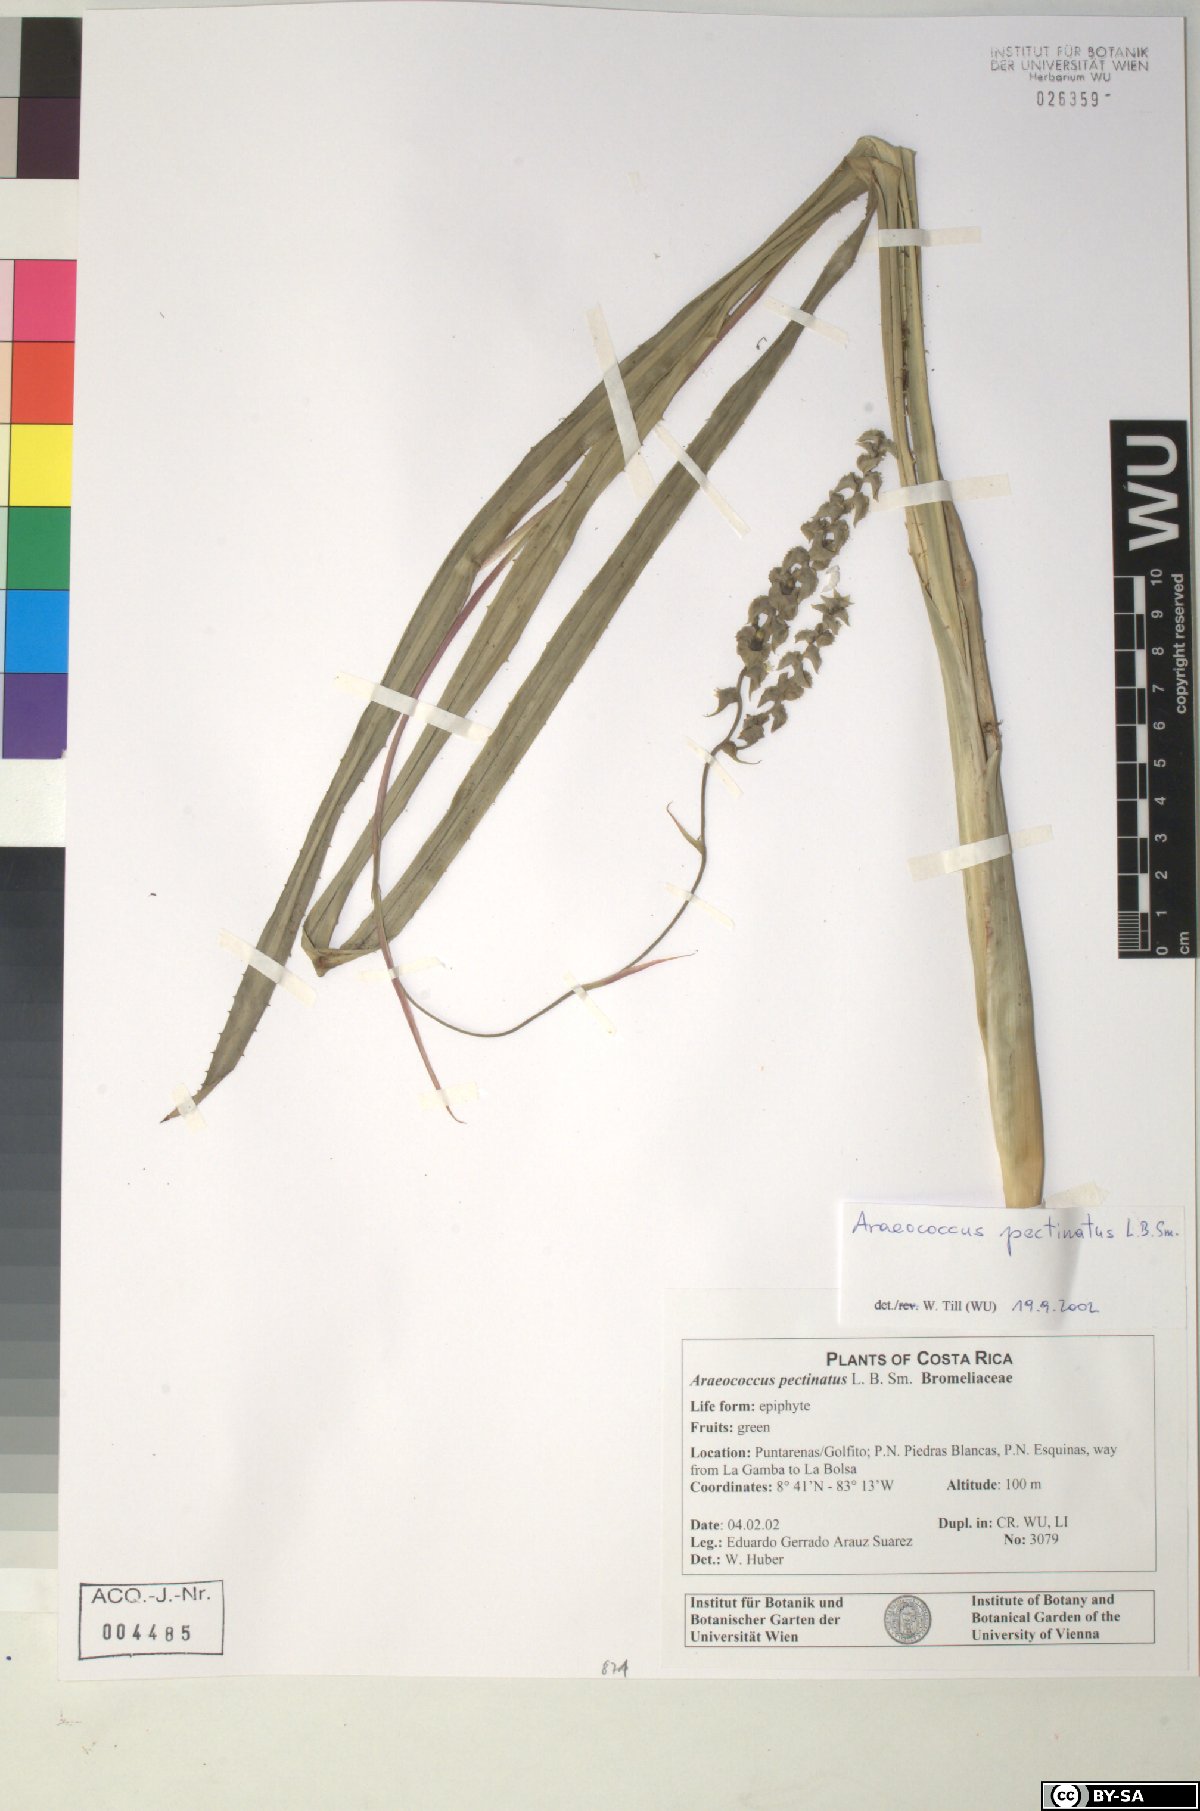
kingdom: Plantae
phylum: Tracheophyta
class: Liliopsida
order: Poales
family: Bromeliaceae
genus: Araeococcus
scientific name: Araeococcus pectinatus
